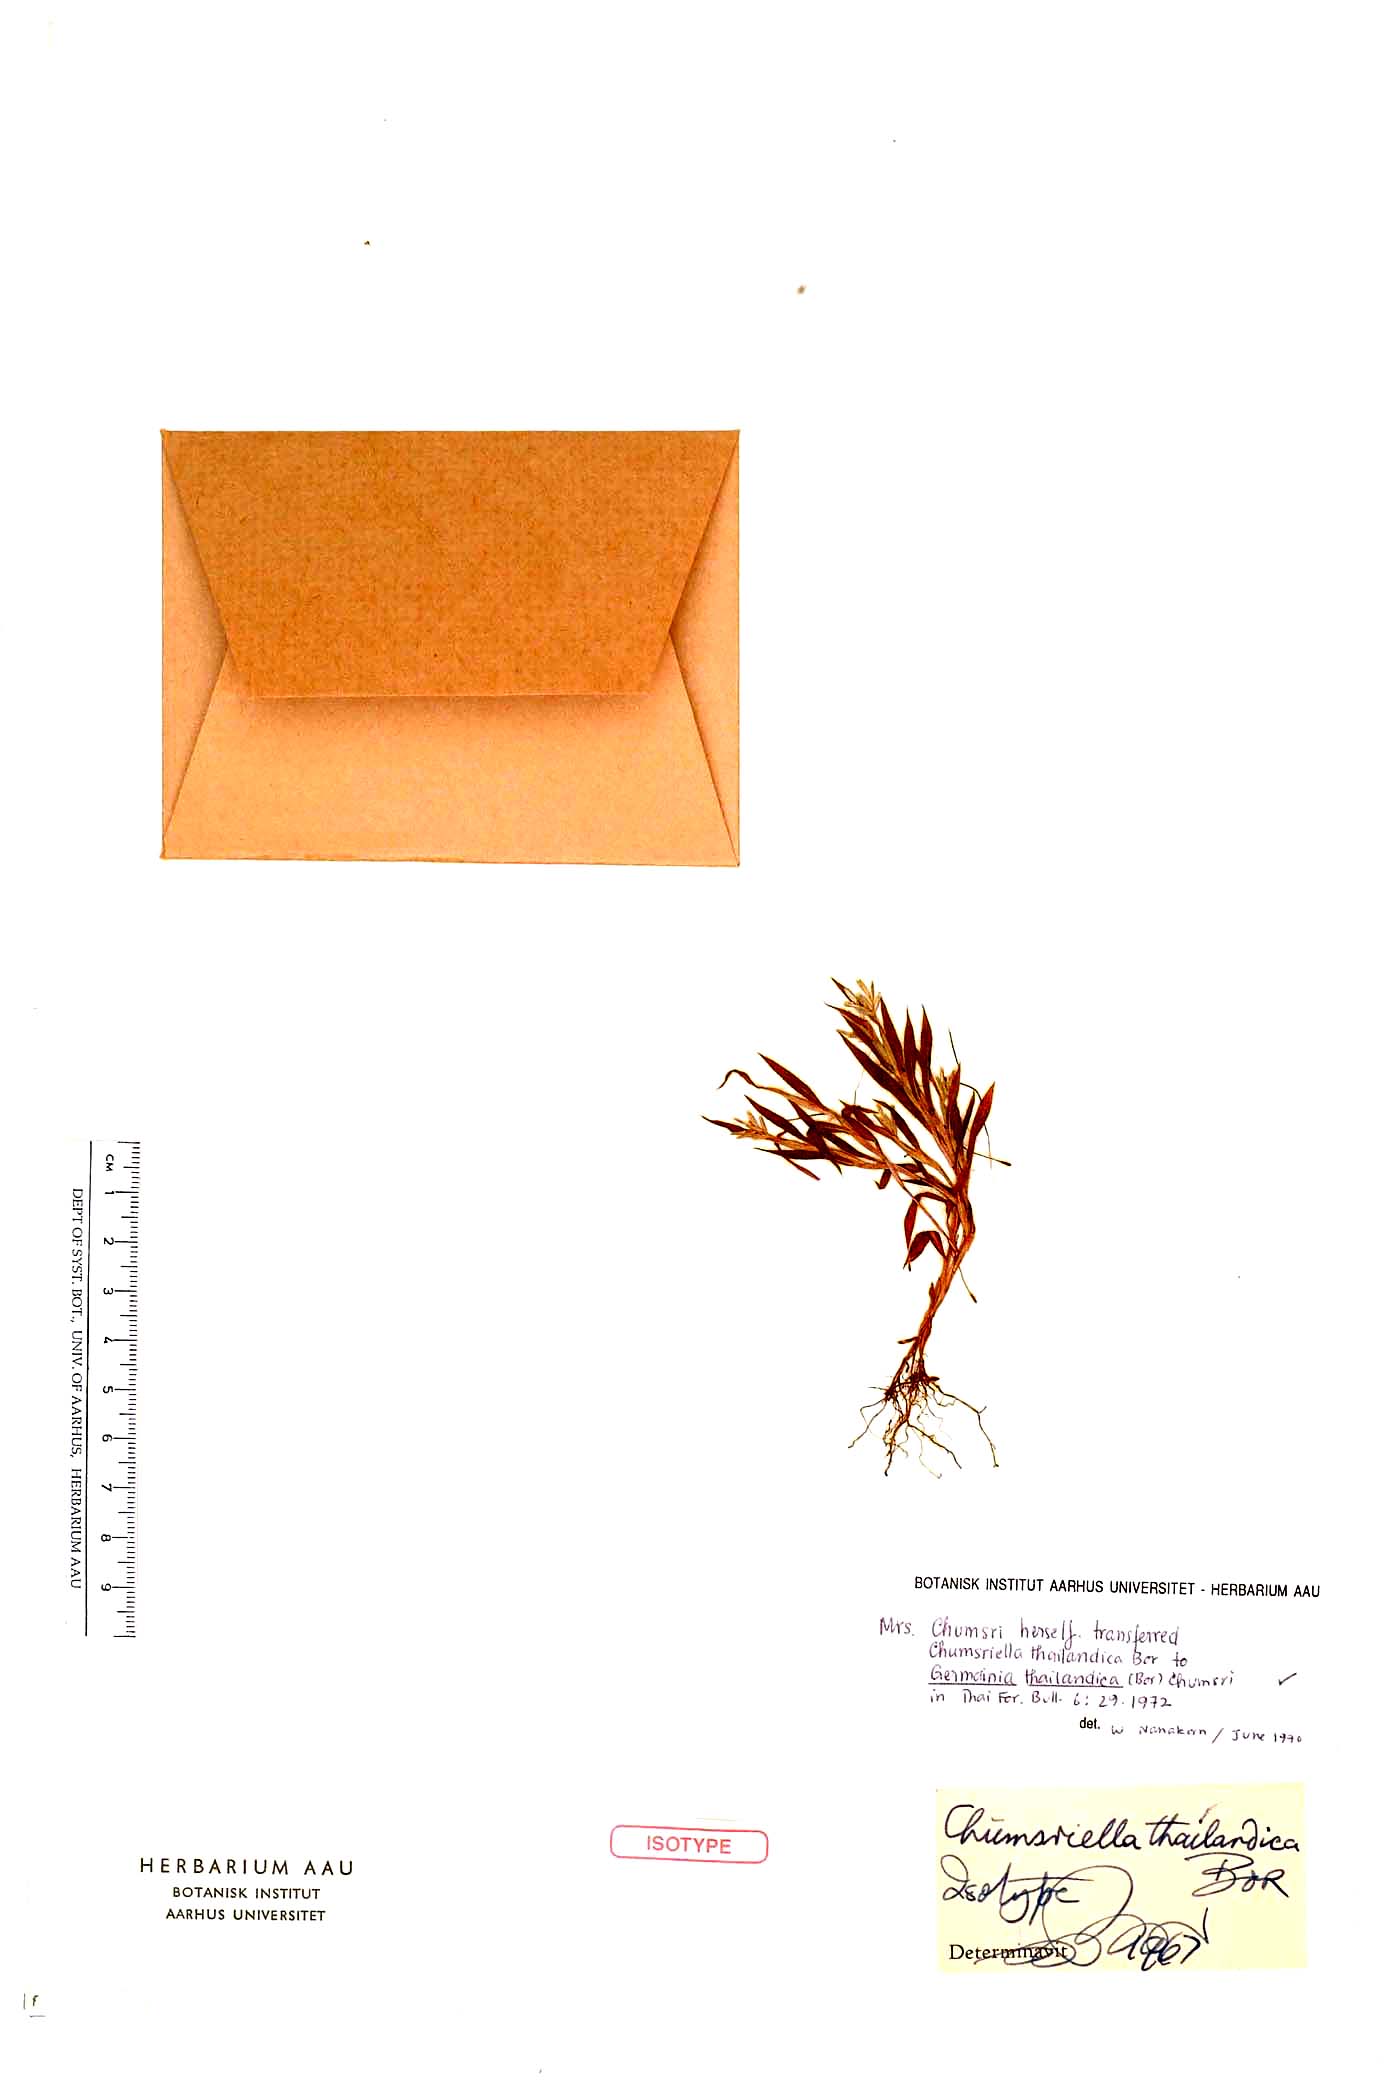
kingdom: Plantae
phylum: Tracheophyta
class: Liliopsida
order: Poales
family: Poaceae
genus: Germainia
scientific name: Germainia thailandica
